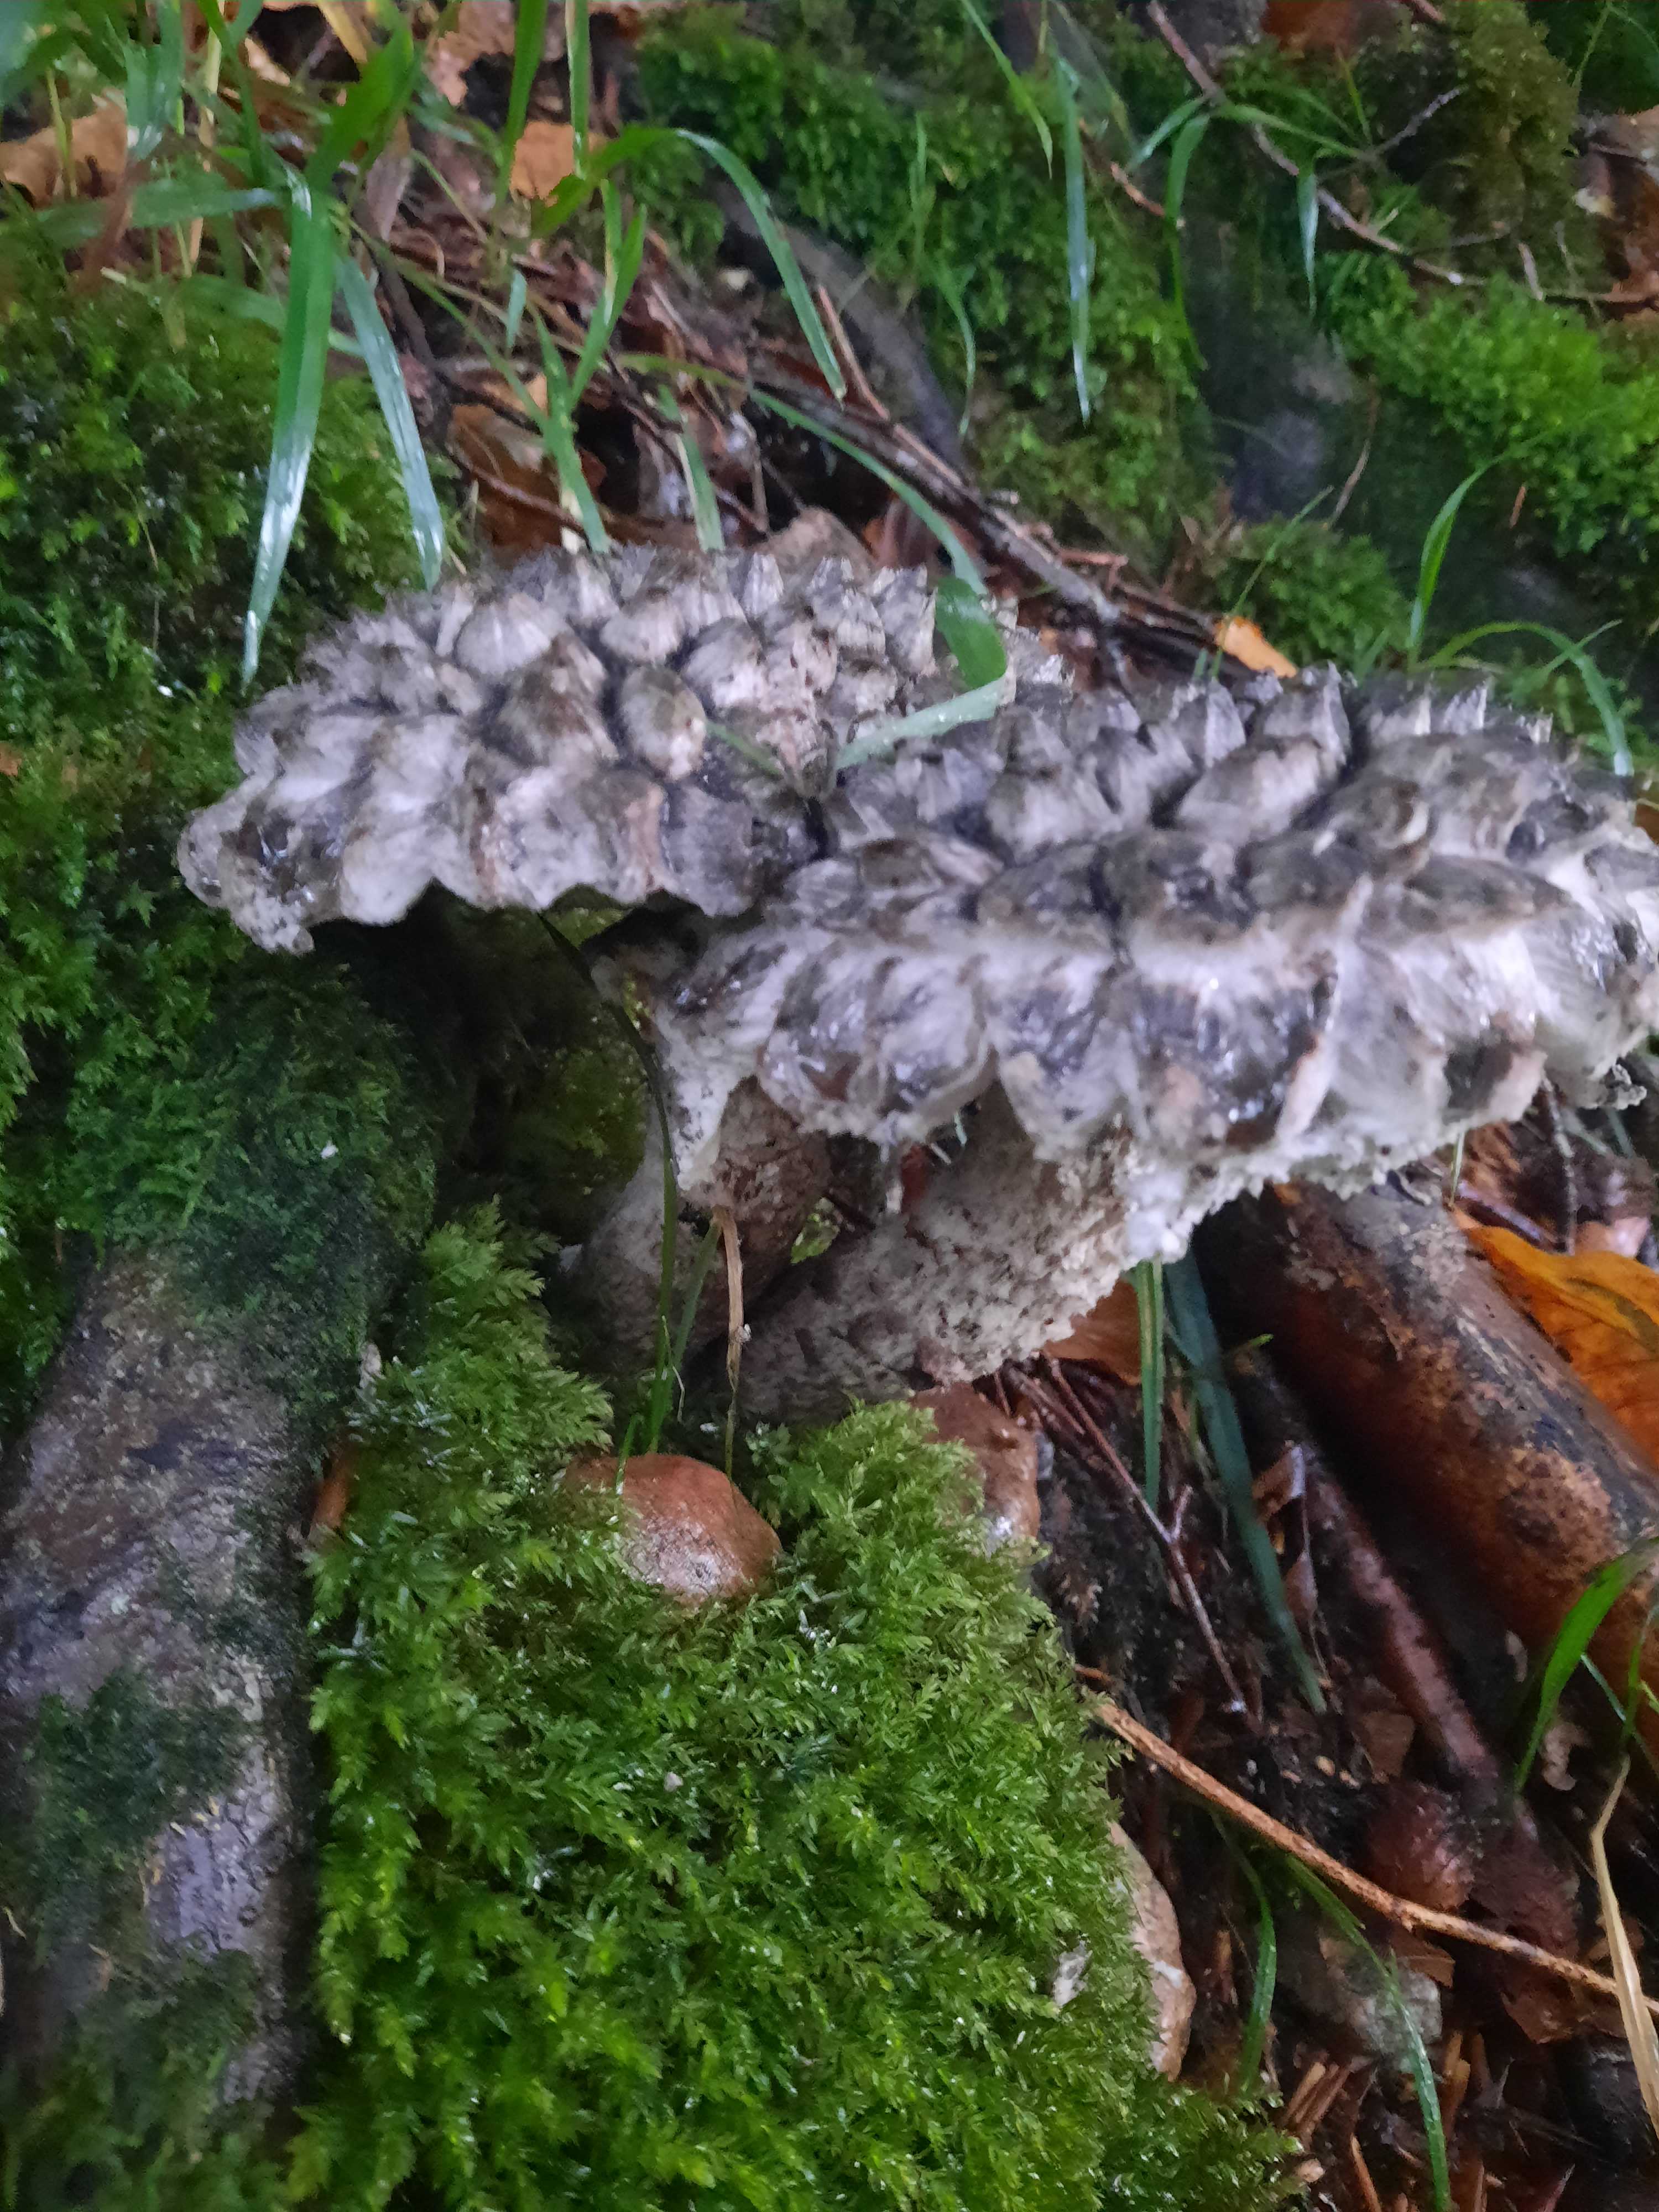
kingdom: Fungi
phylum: Basidiomycota
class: Agaricomycetes
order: Boletales
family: Boletaceae
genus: Strobilomyces
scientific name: Strobilomyces strobilaceus
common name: koglerørhat
